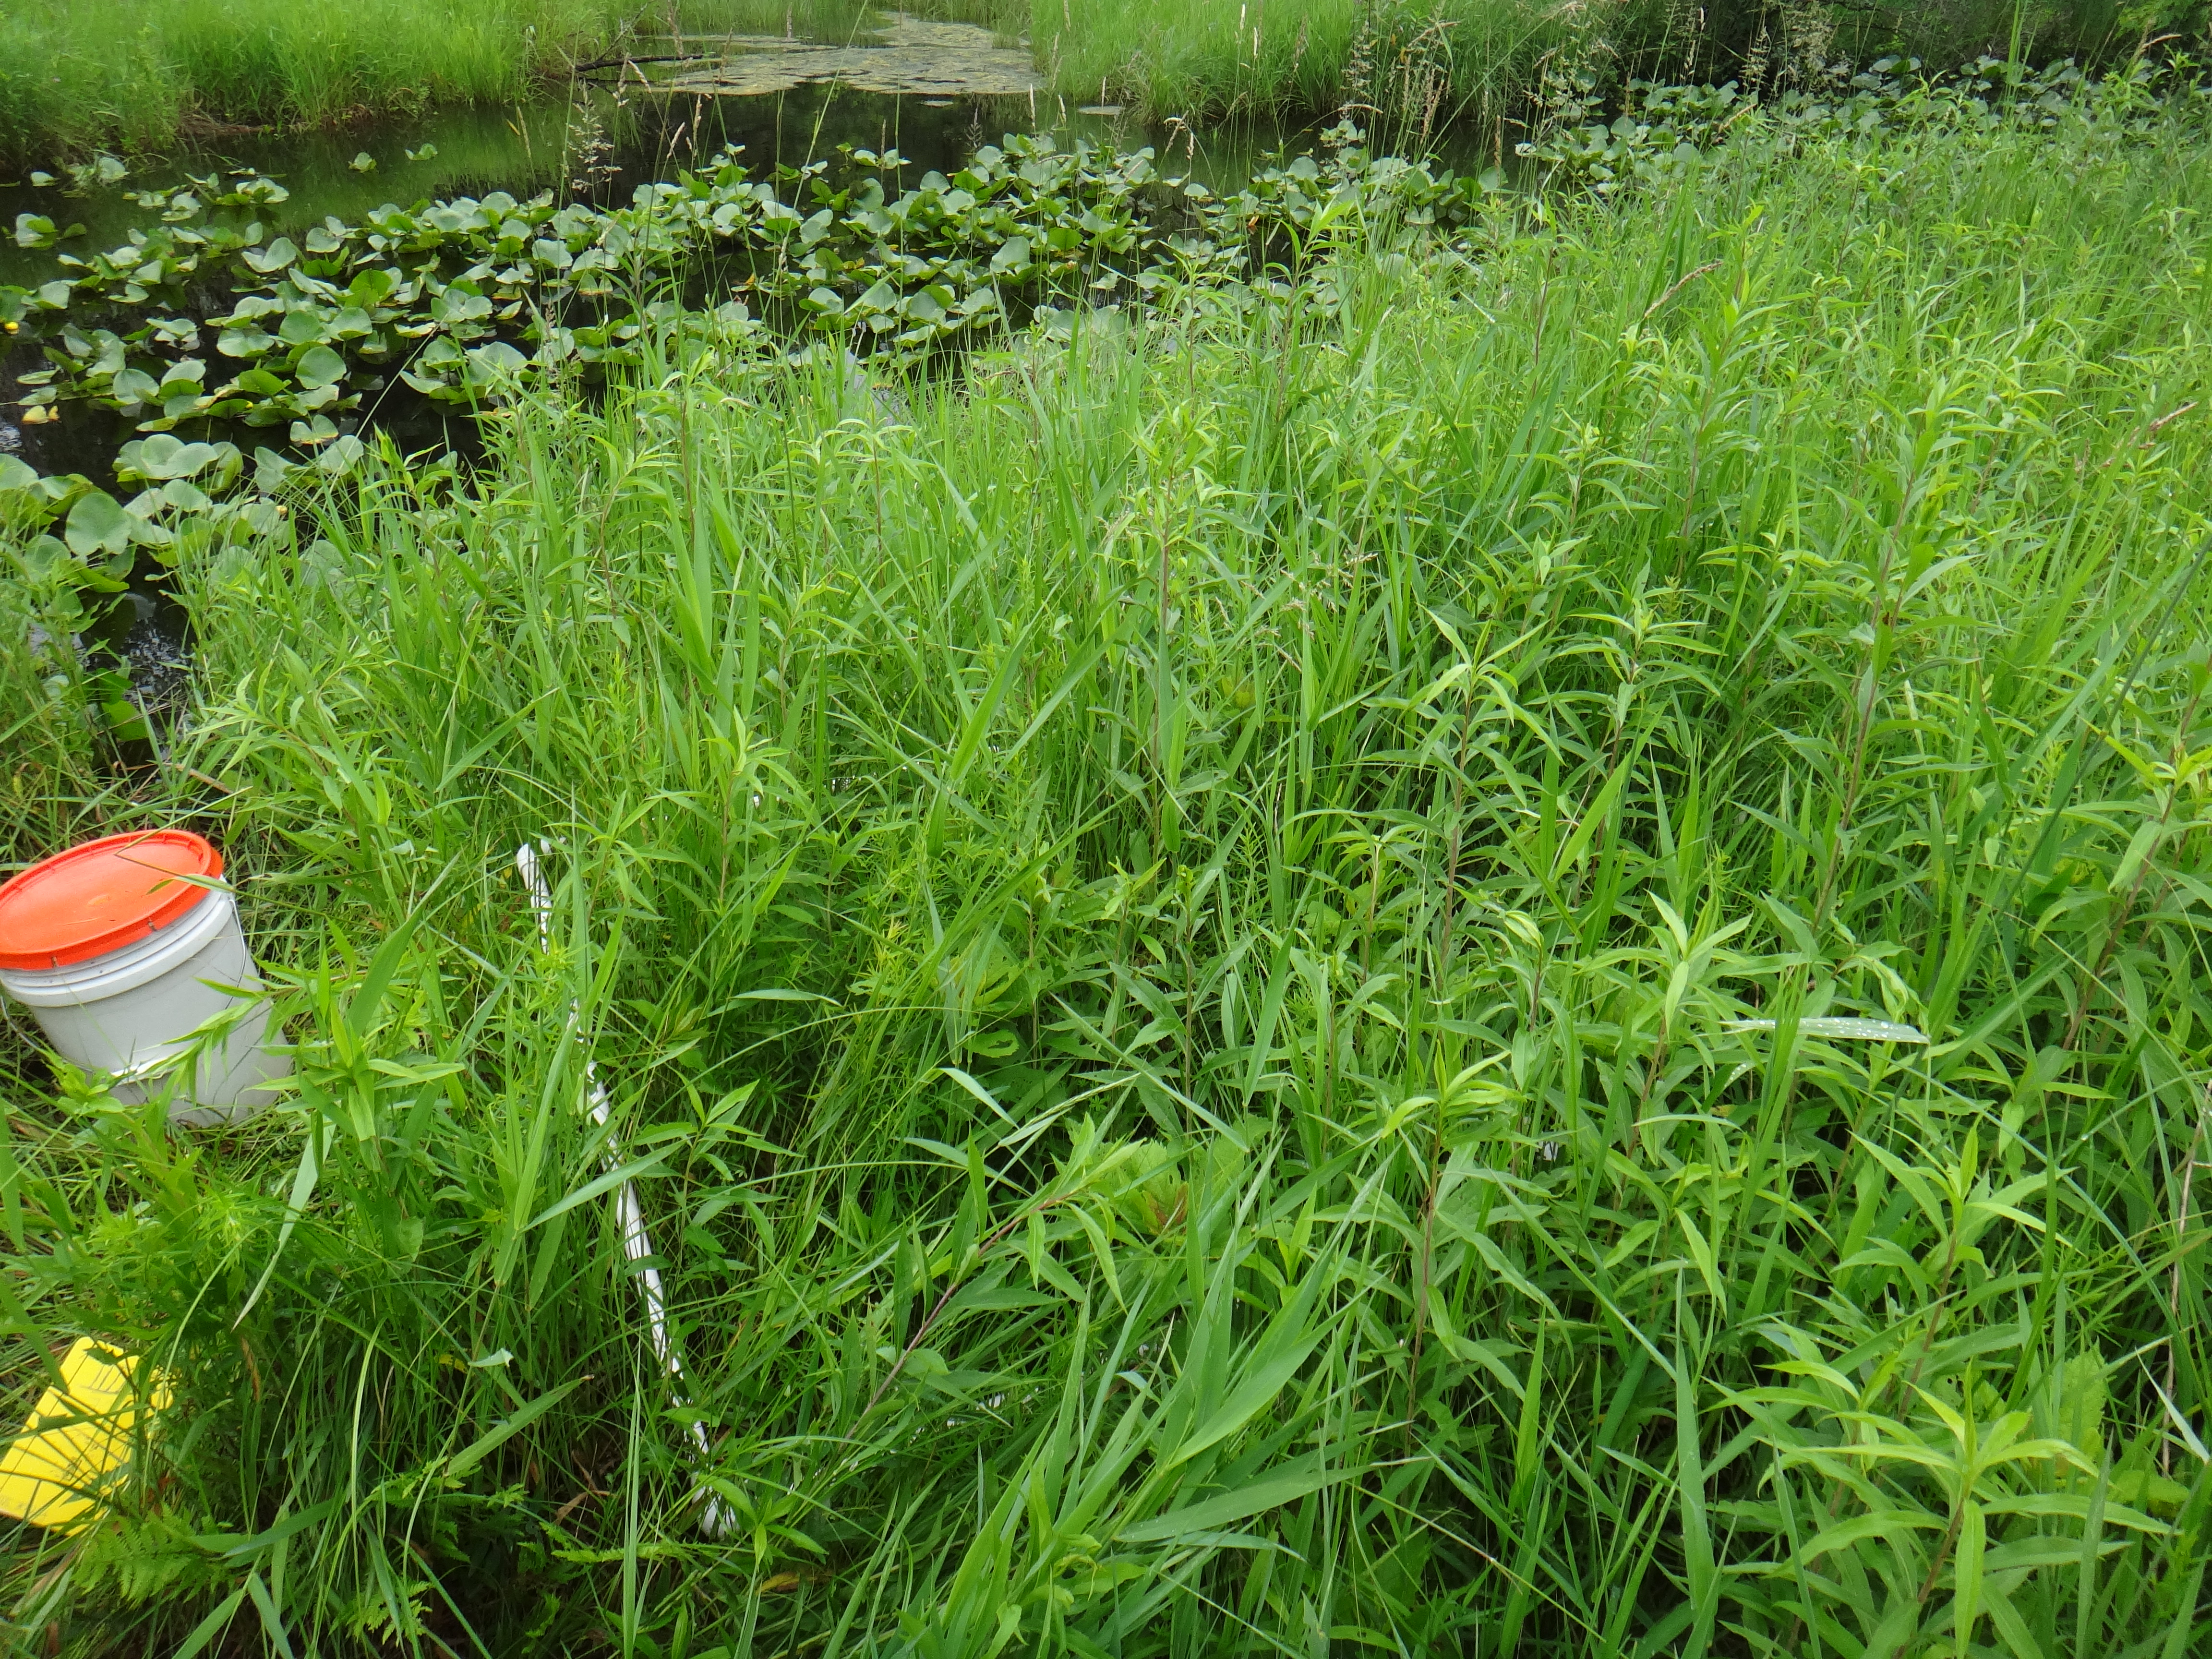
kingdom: Plantae
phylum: Tracheophyta
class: Magnoliopsida
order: Gentianales
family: Rubiaceae
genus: Galium
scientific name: Galium asprellum
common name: Rough bedstraw
